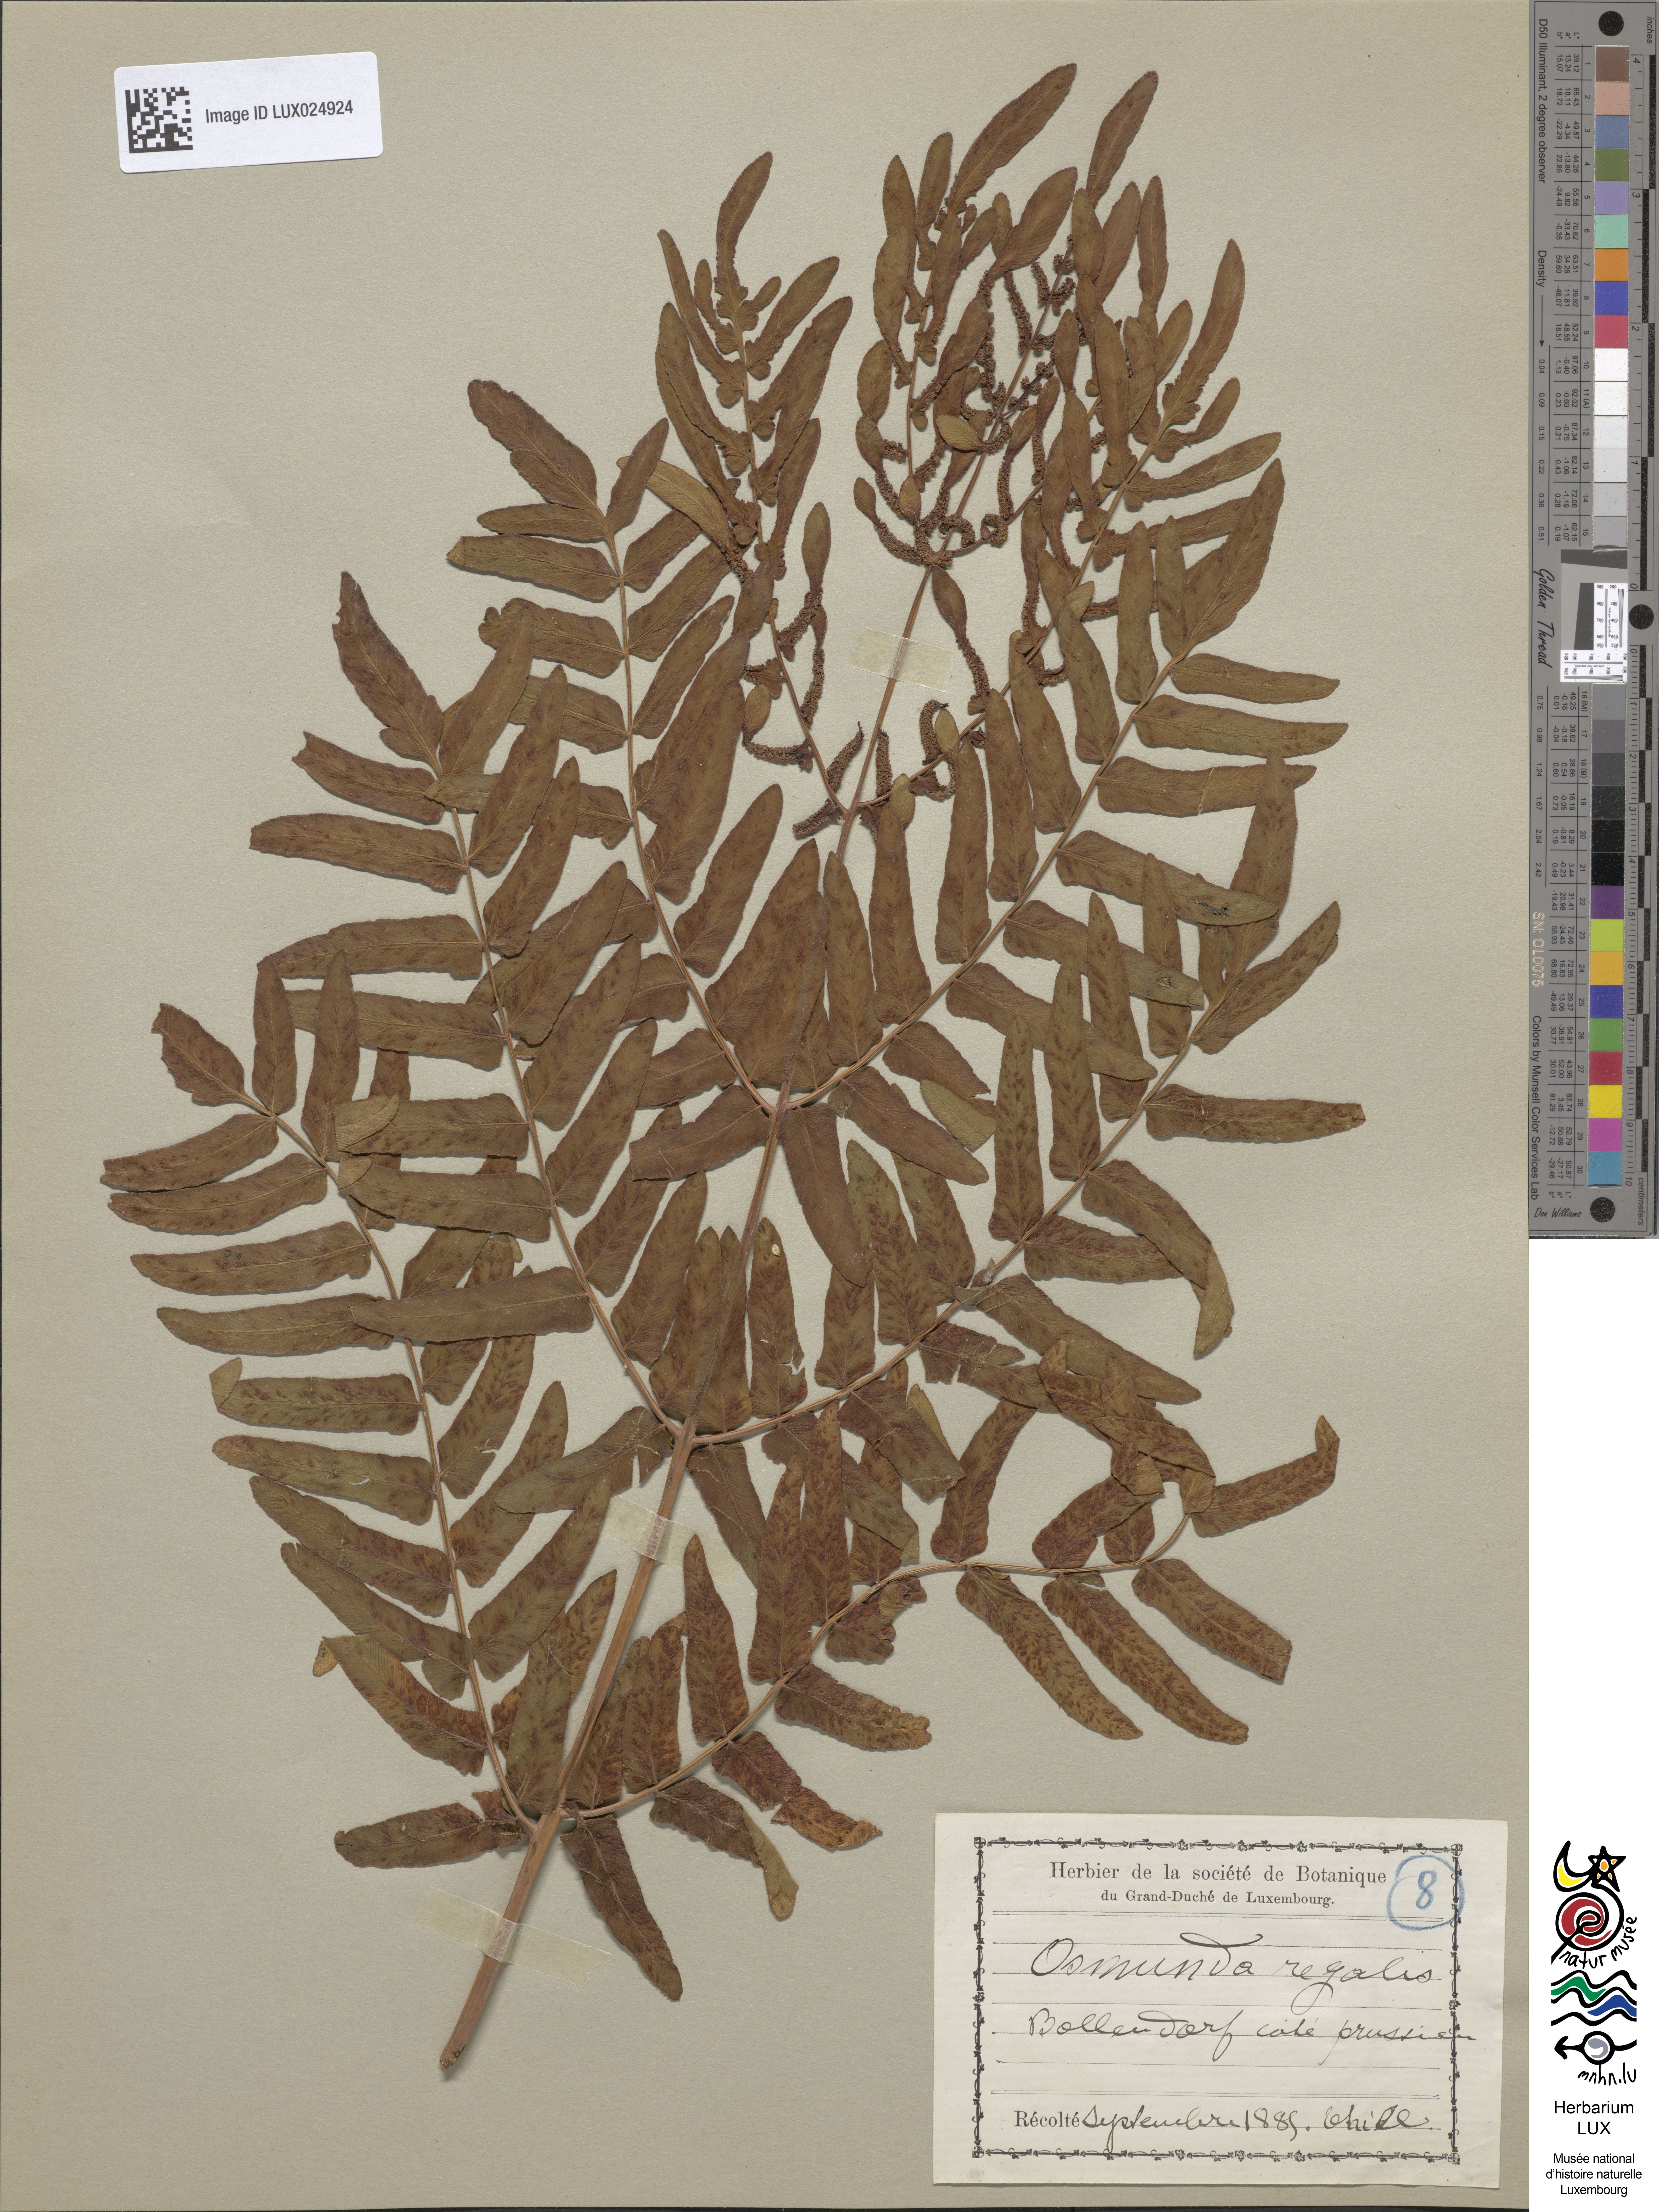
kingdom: Plantae
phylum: Tracheophyta
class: Polypodiopsida
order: Osmundales
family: Osmundaceae
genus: Osmunda
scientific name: Osmunda regalis
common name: Royal fern
